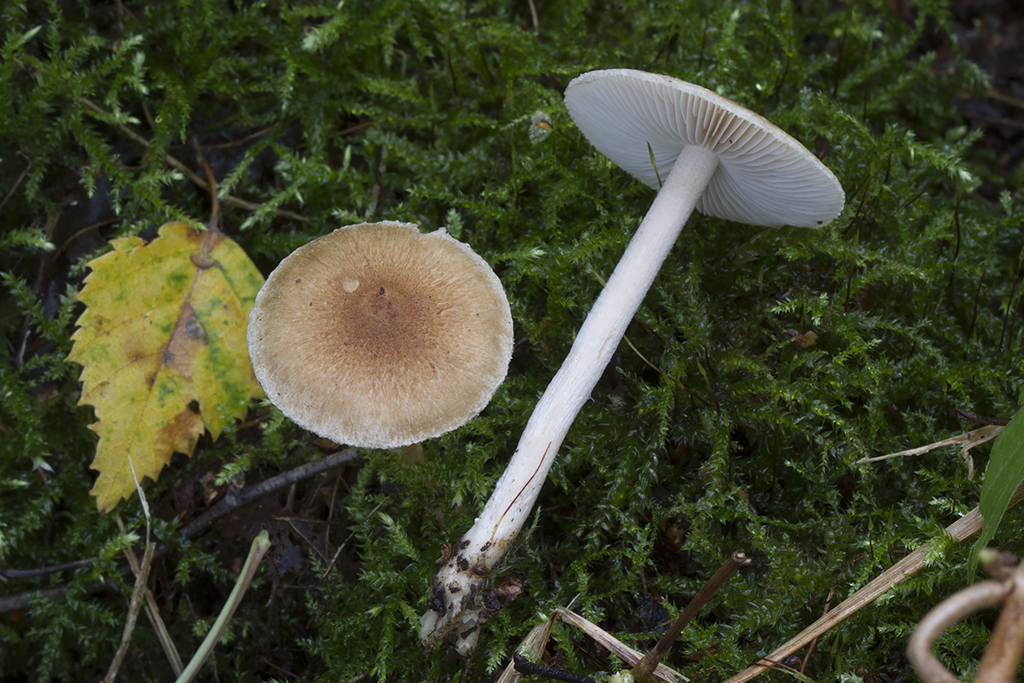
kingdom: Fungi
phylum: Basidiomycota
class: Agaricomycetes
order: Agaricales
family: Inocybaceae
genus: Inocybe
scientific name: Inocybe flocculosa
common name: fnugget trævlhat
